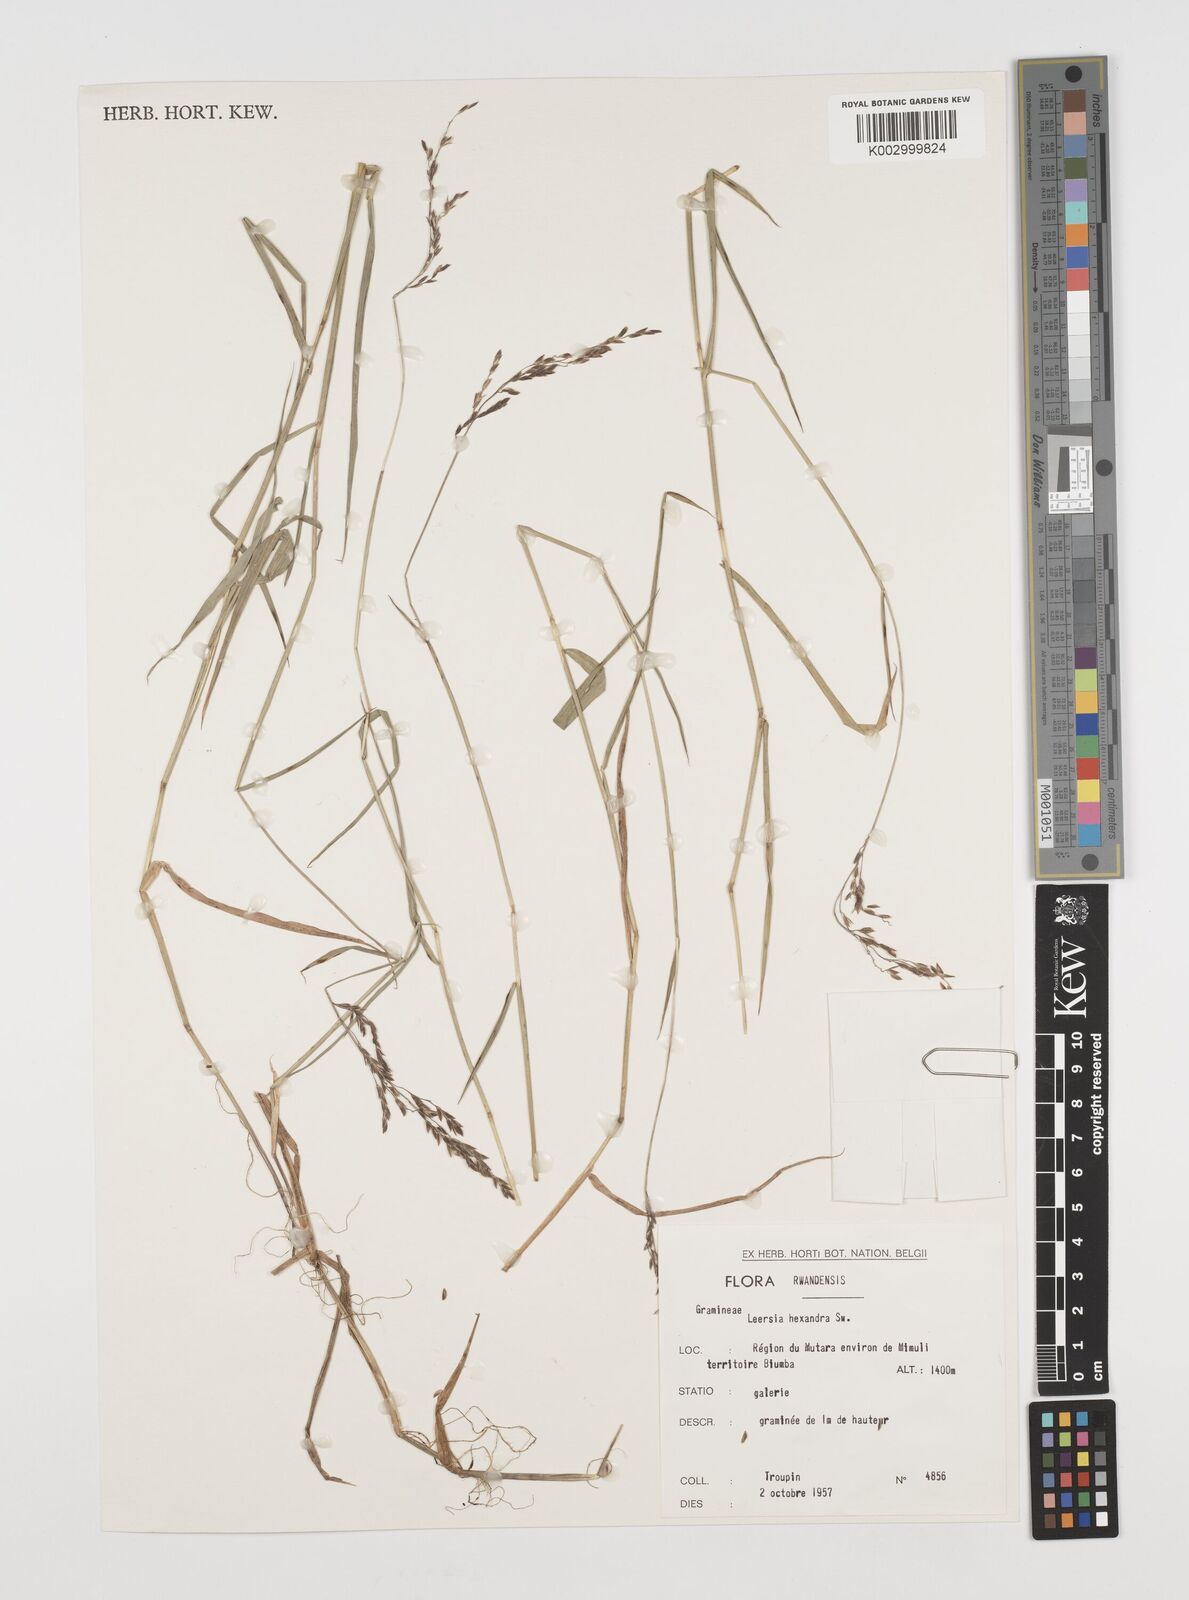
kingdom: Plantae
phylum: Tracheophyta
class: Liliopsida
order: Poales
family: Poaceae
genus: Leersia
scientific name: Leersia hexandra
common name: Southern cut grass
